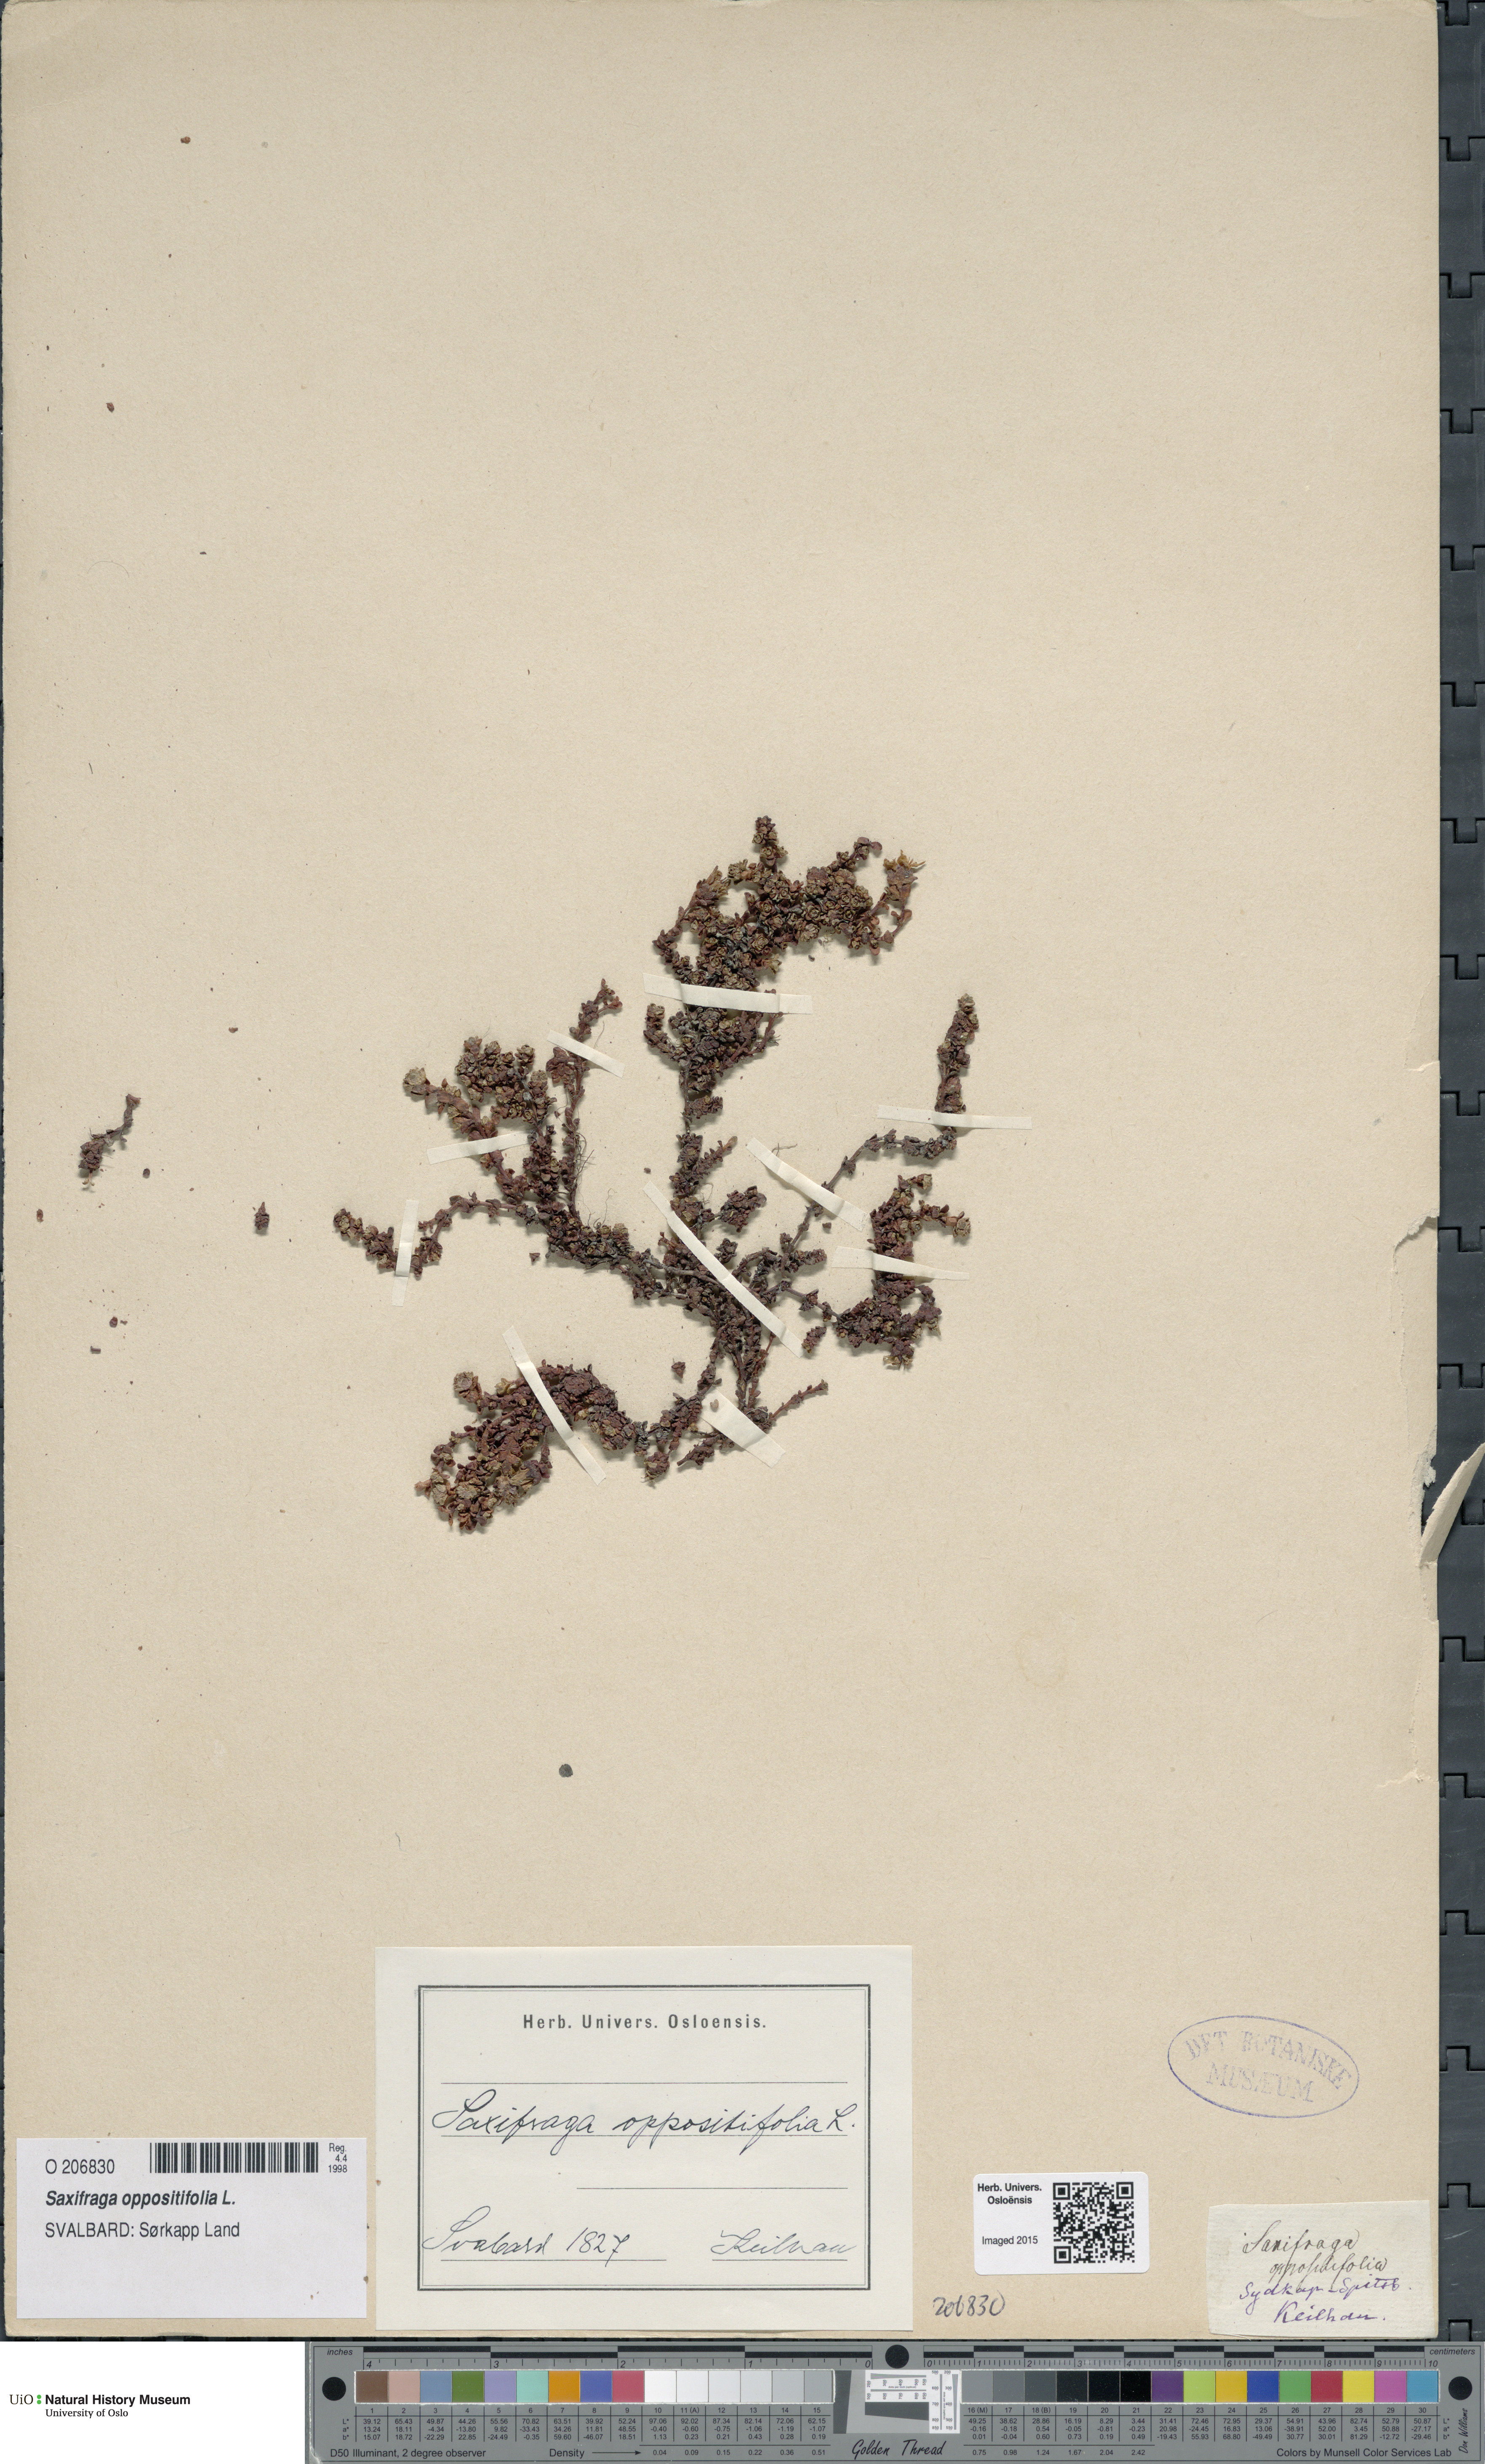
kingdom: Plantae
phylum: Tracheophyta
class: Magnoliopsida
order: Saxifragales
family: Saxifragaceae
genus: Saxifraga
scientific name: Saxifraga oppositifolia
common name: Purple saxifrage
